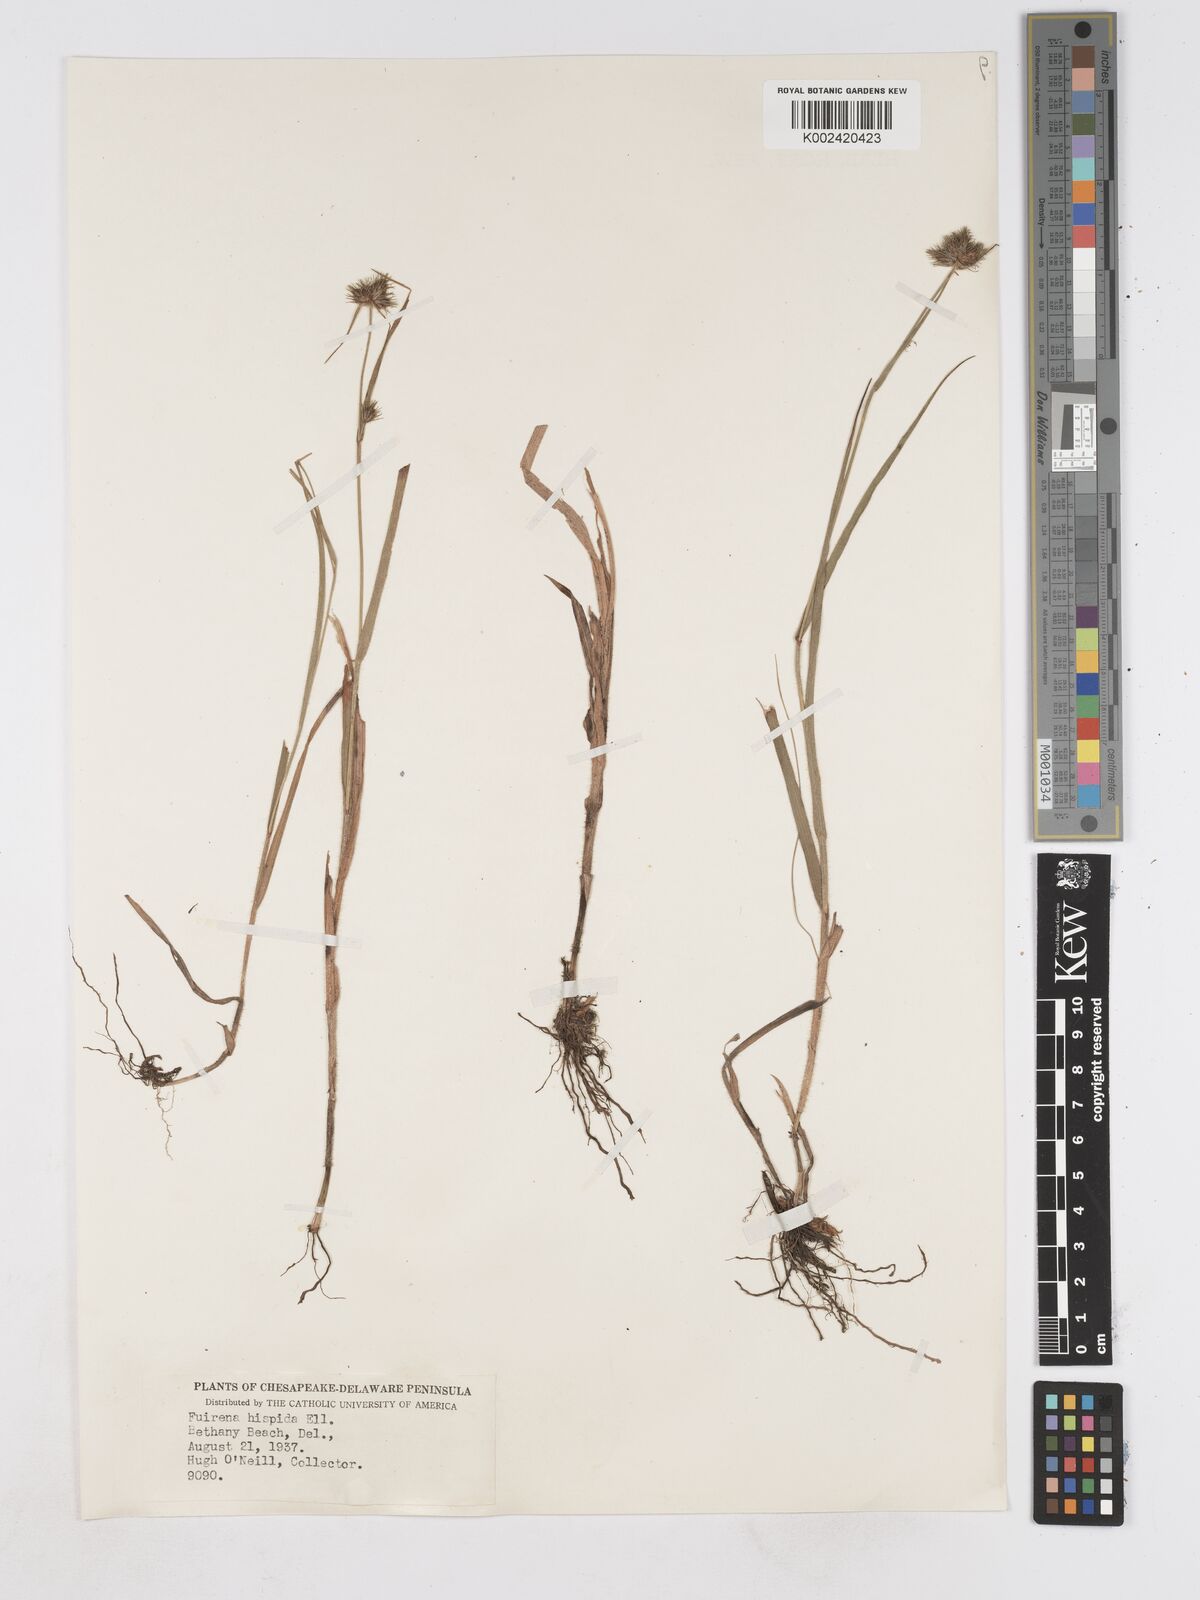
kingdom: Plantae
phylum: Tracheophyta
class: Liliopsida
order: Poales
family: Cyperaceae
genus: Fuirena
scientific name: Fuirena squarrosa
